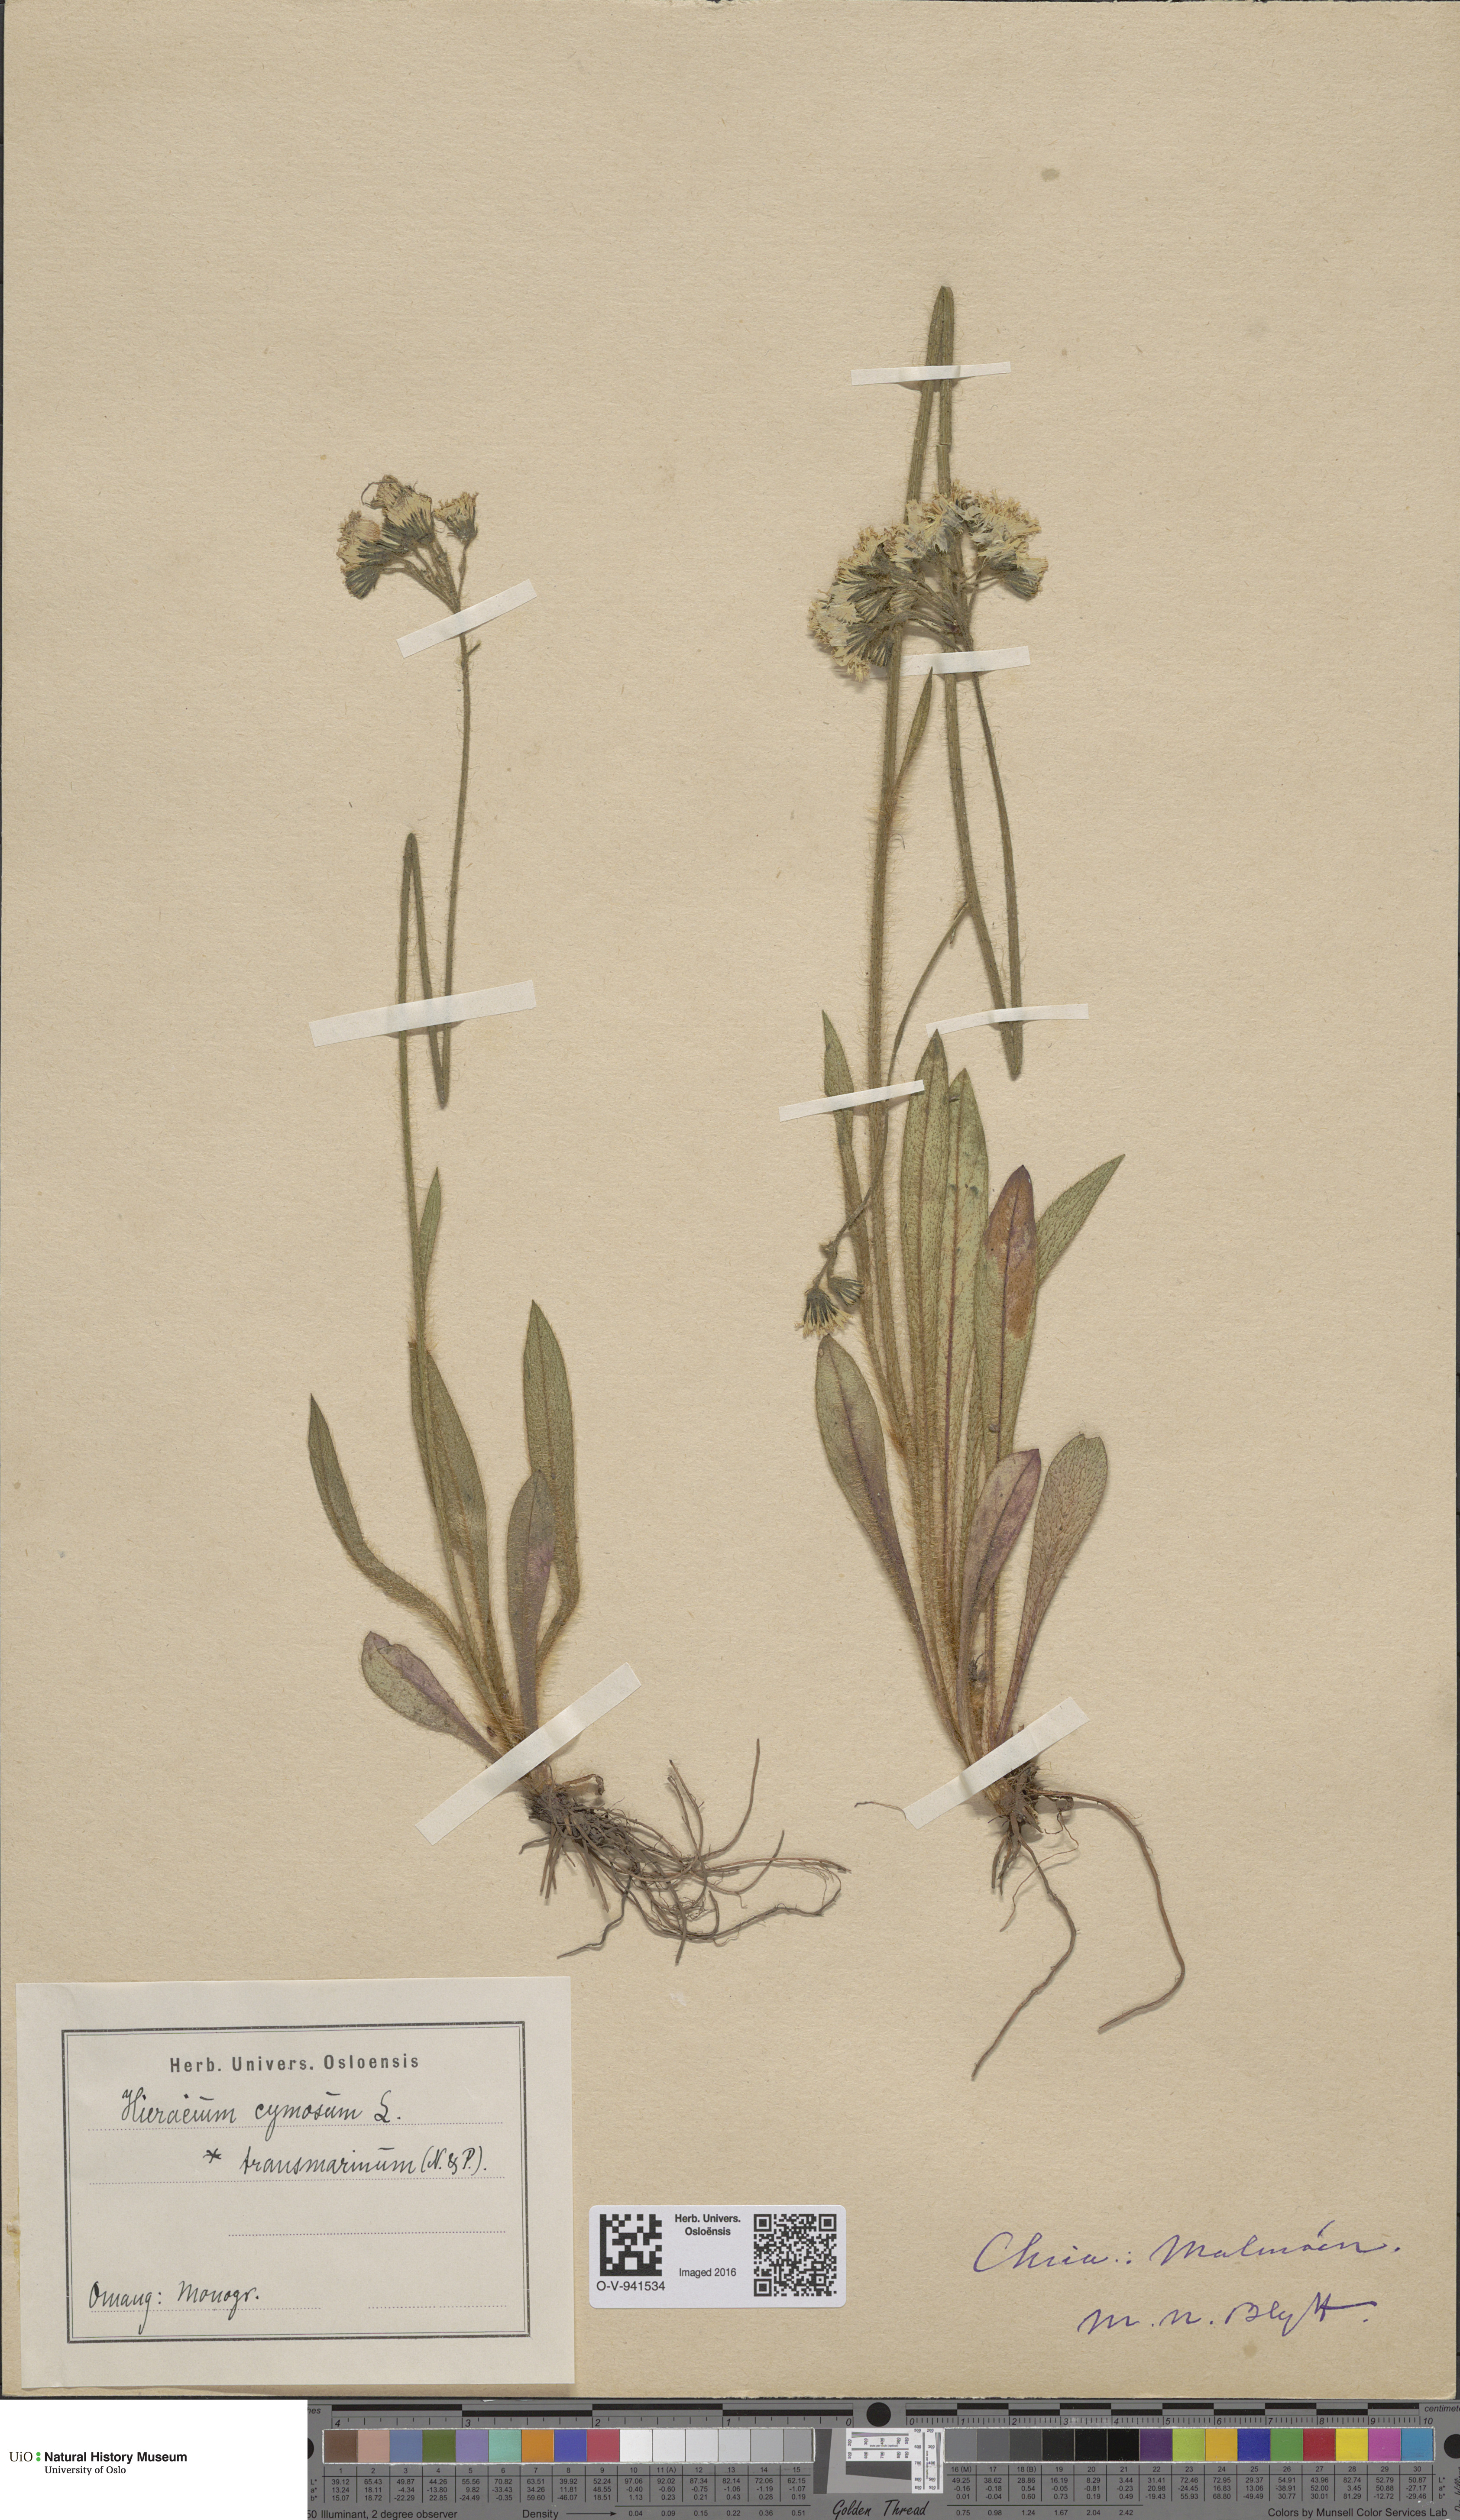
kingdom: Plantae
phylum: Tracheophyta
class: Magnoliopsida
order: Asterales
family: Asteraceae
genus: Pilosella
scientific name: Pilosella cymosa
